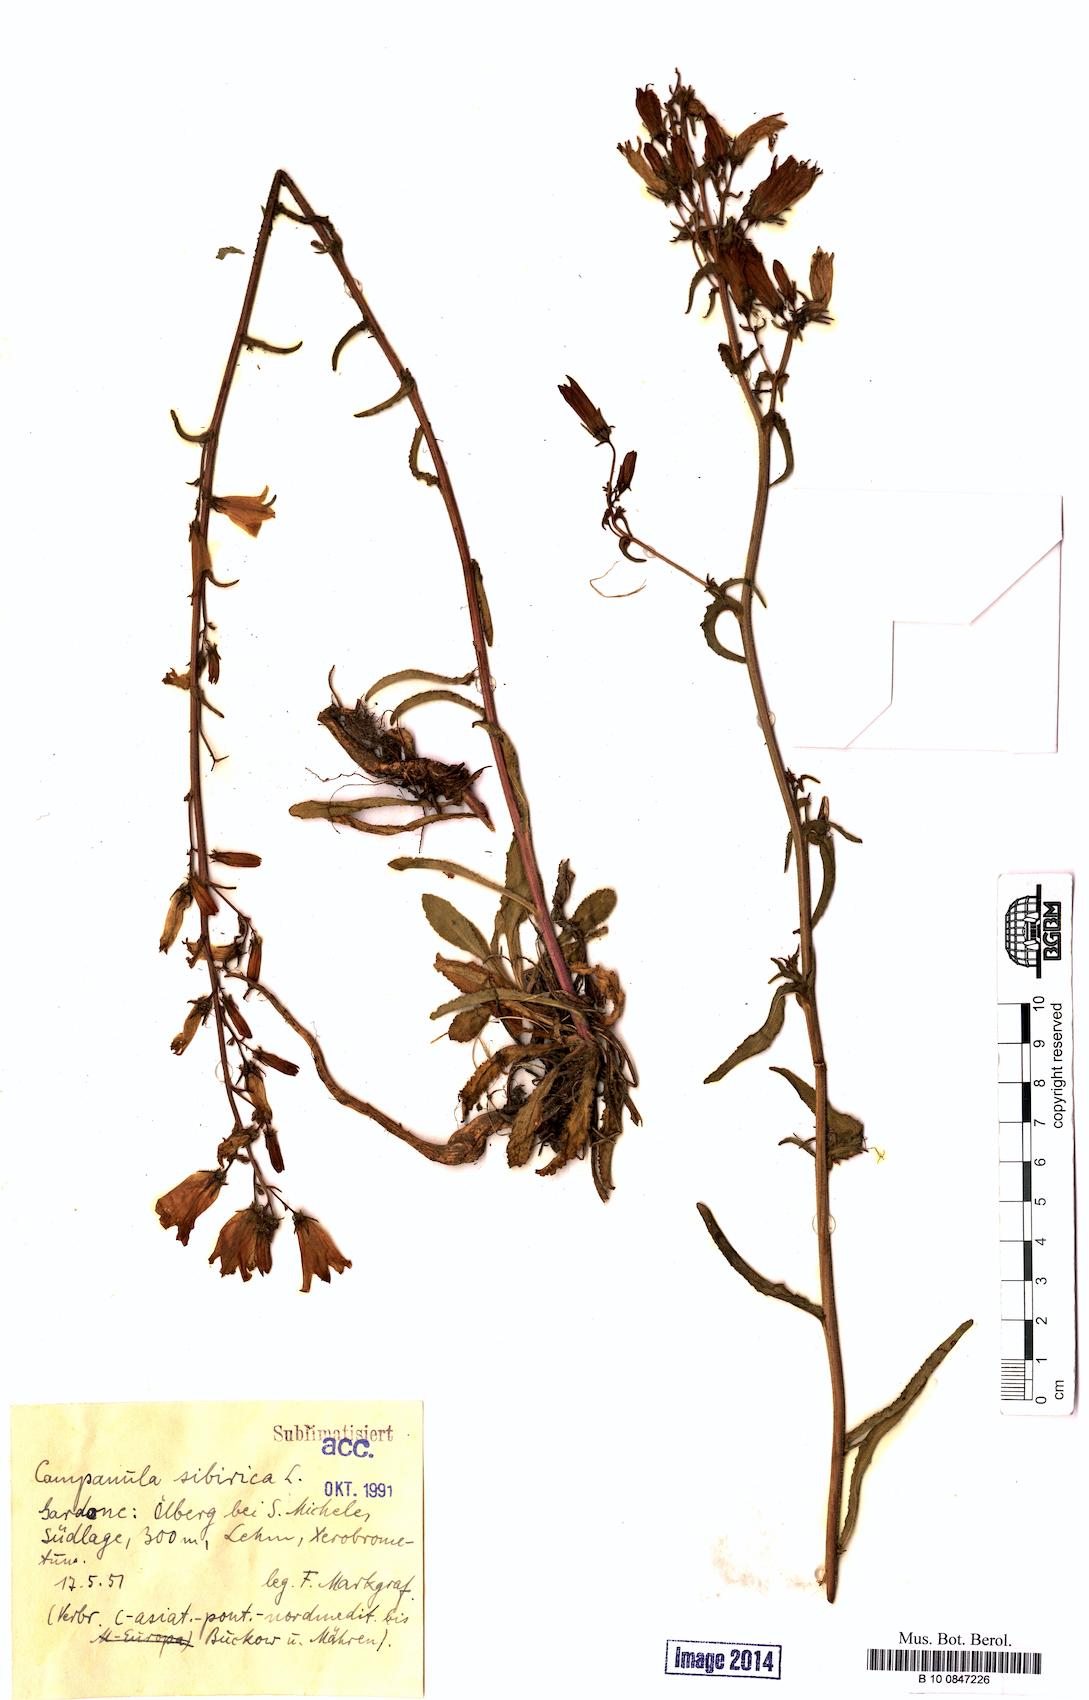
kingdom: Plantae
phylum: Tracheophyta
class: Magnoliopsida
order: Asterales
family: Campanulaceae
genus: Campanula
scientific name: Campanula sibirica
